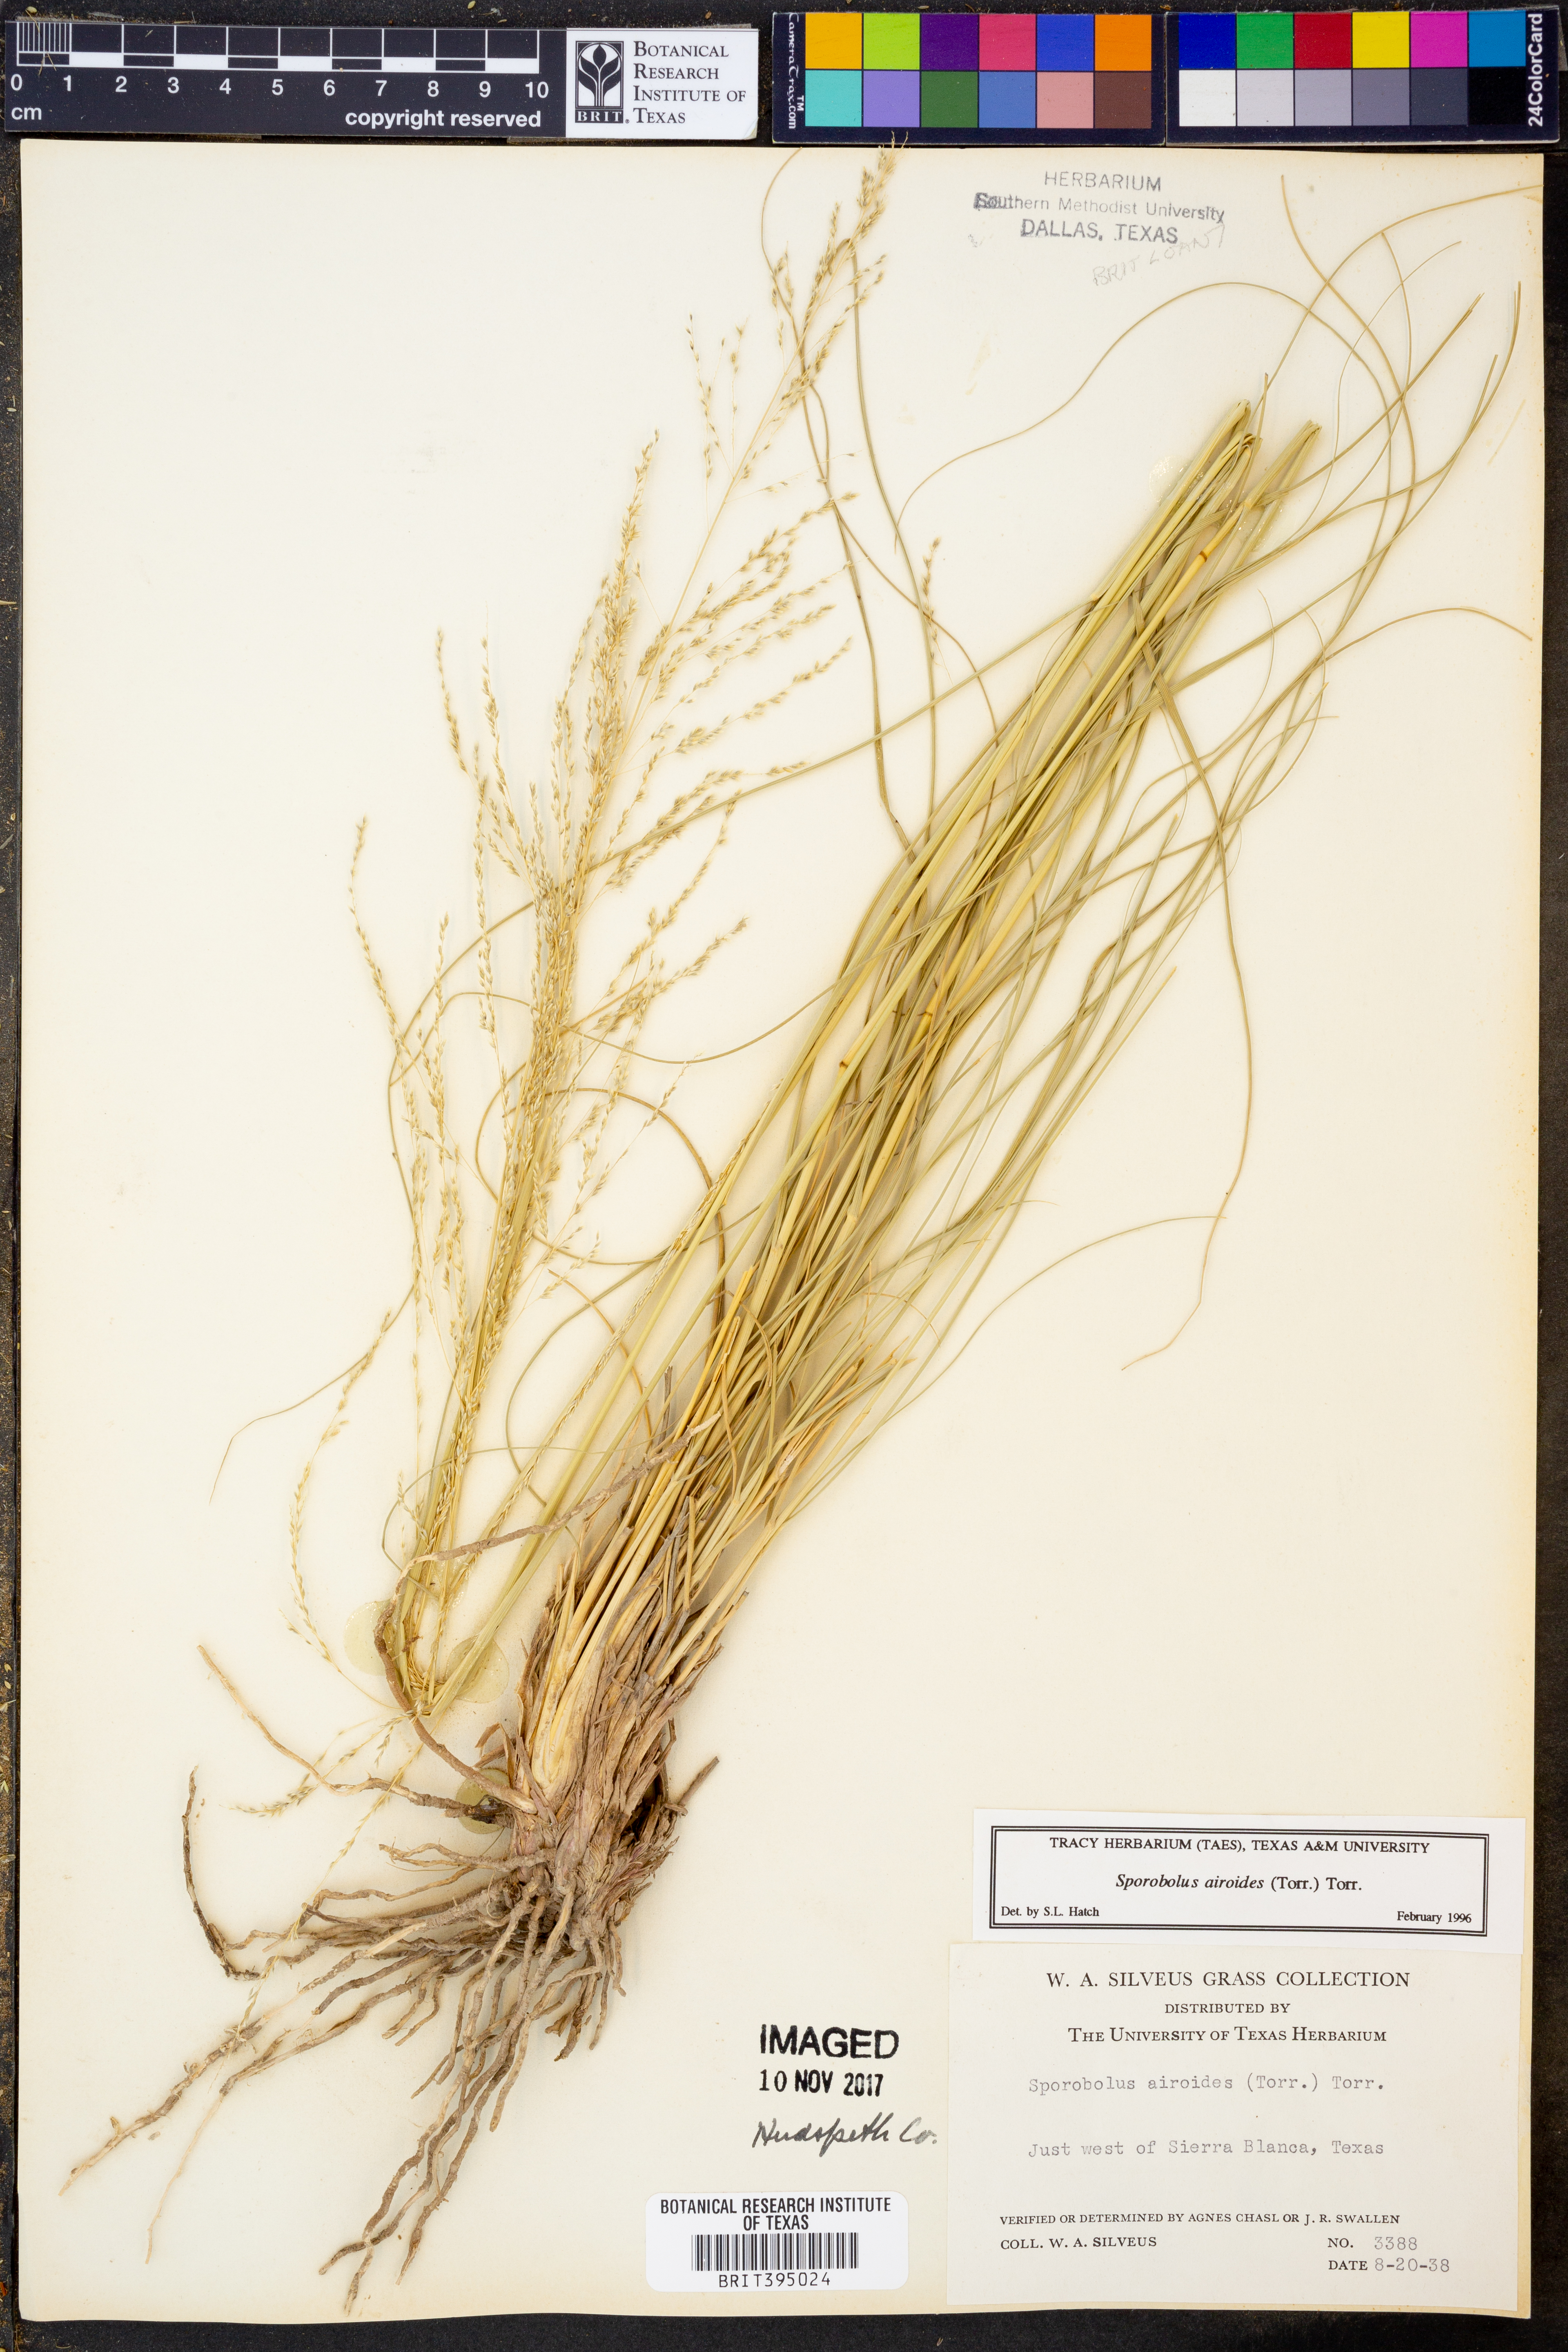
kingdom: Plantae
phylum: Tracheophyta
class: Liliopsida
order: Poales
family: Poaceae
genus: Sporobolus
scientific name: Sporobolus airoides
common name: Alkali sacaton
